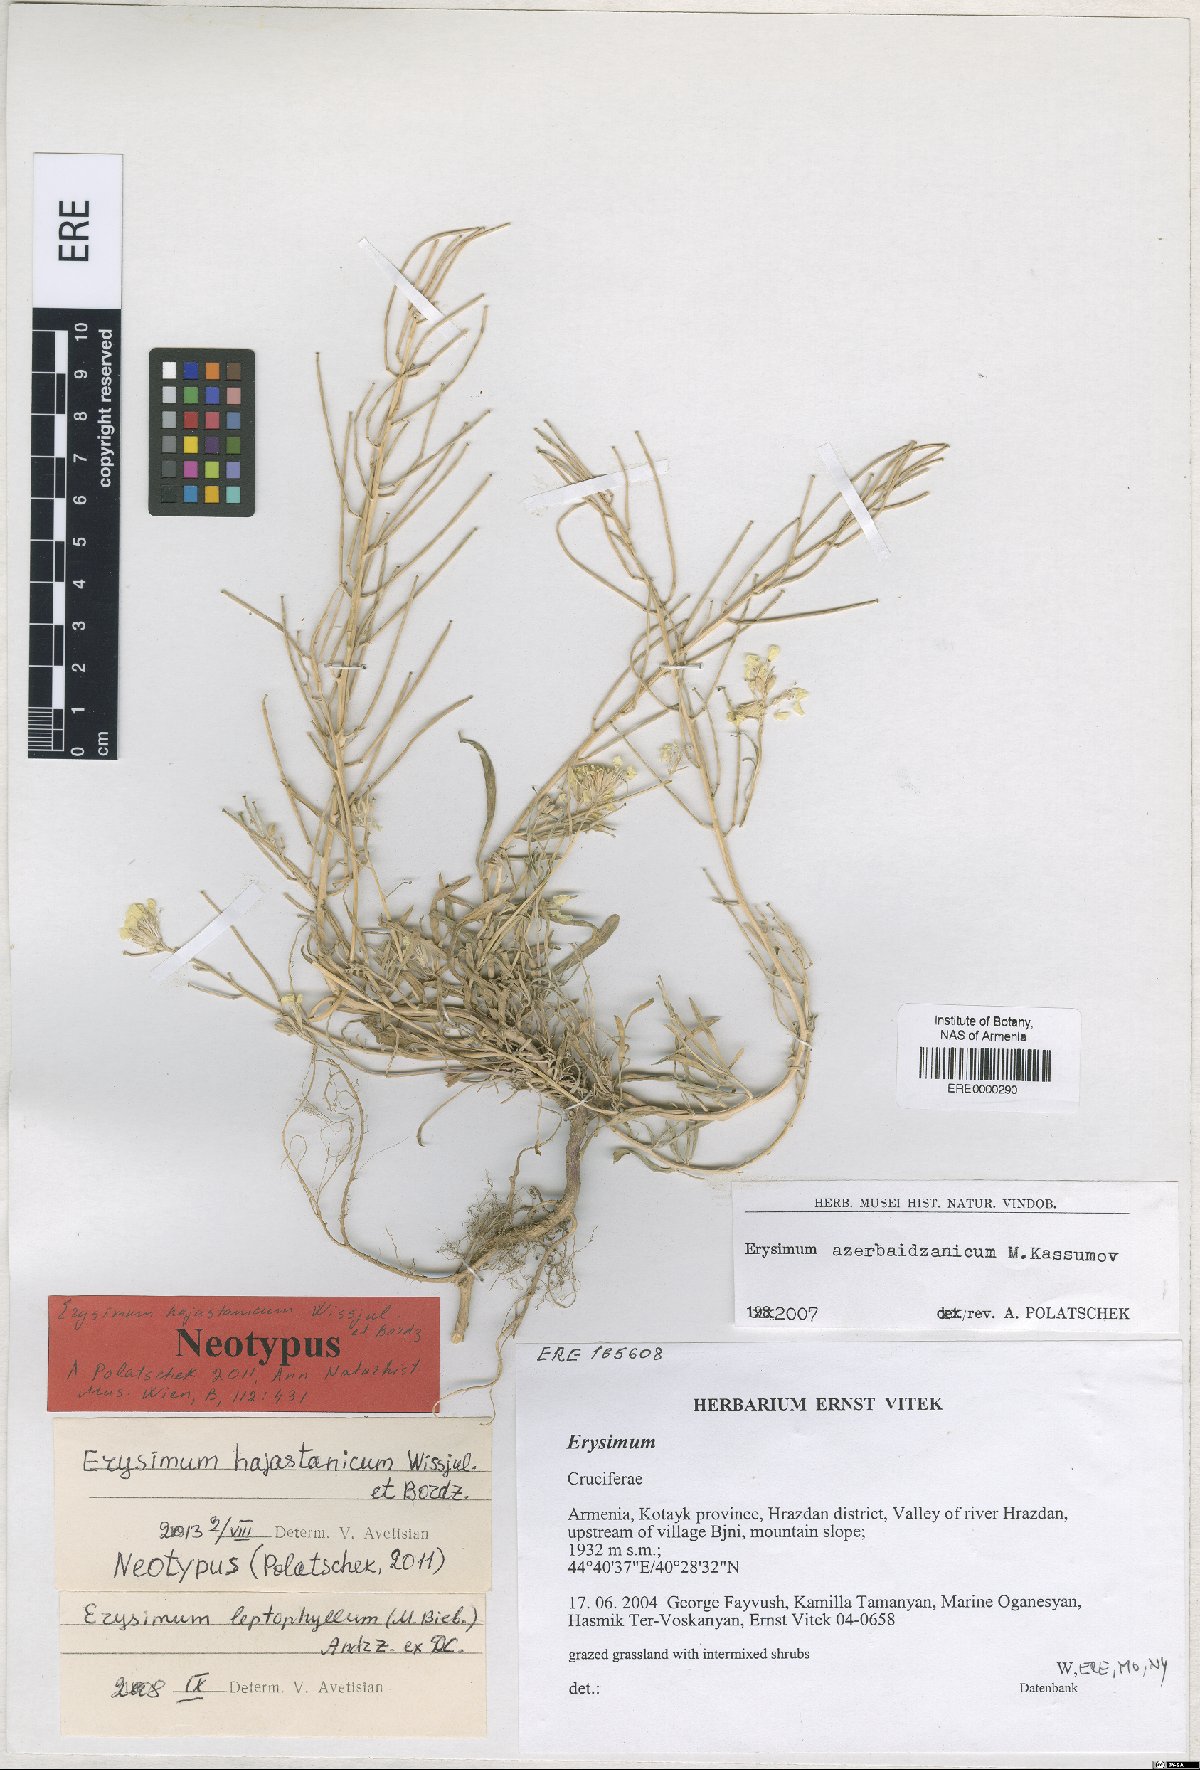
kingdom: Plantae
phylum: Tracheophyta
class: Magnoliopsida
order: Brassicales
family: Brassicaceae
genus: Erysimum
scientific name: Erysimum hajastanicum
